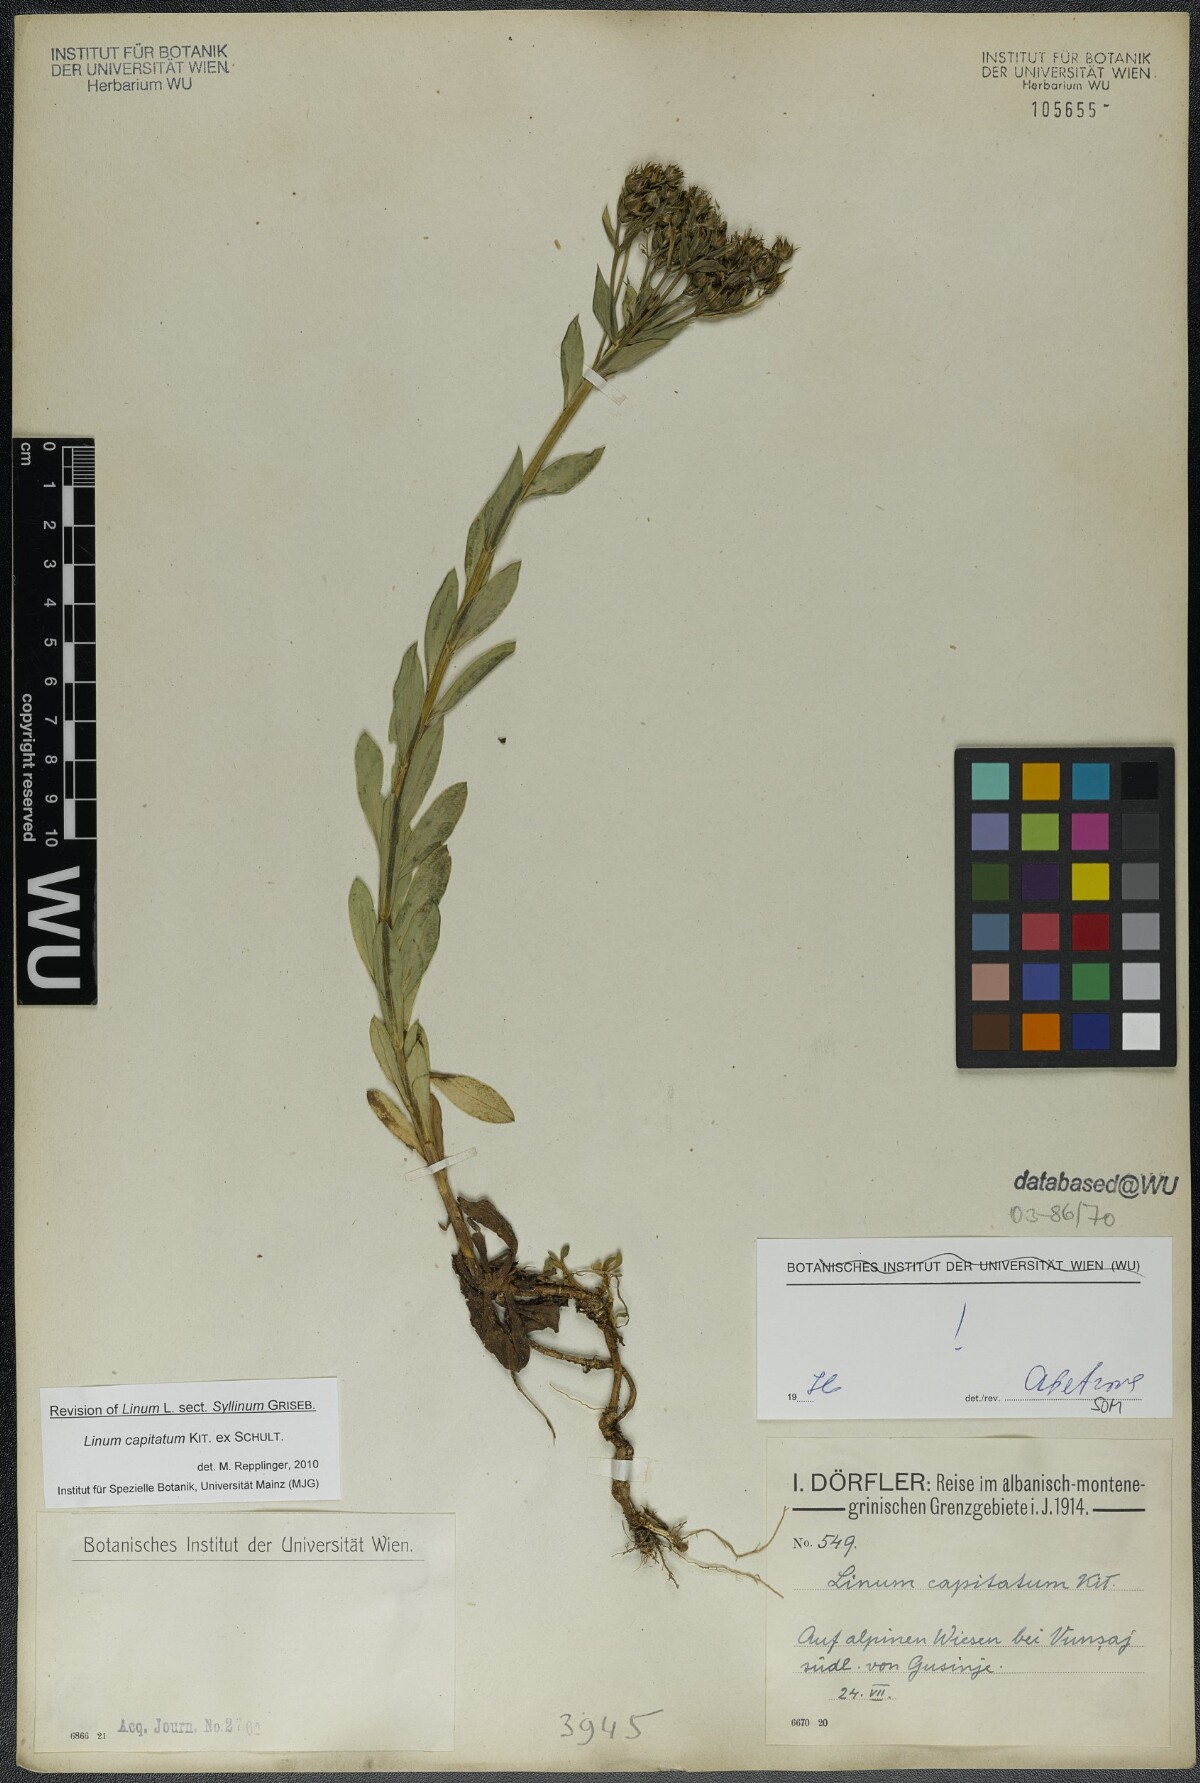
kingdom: Plantae
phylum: Tracheophyta
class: Magnoliopsida
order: Malpighiales
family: Linaceae
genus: Linum
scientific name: Linum capitatum
